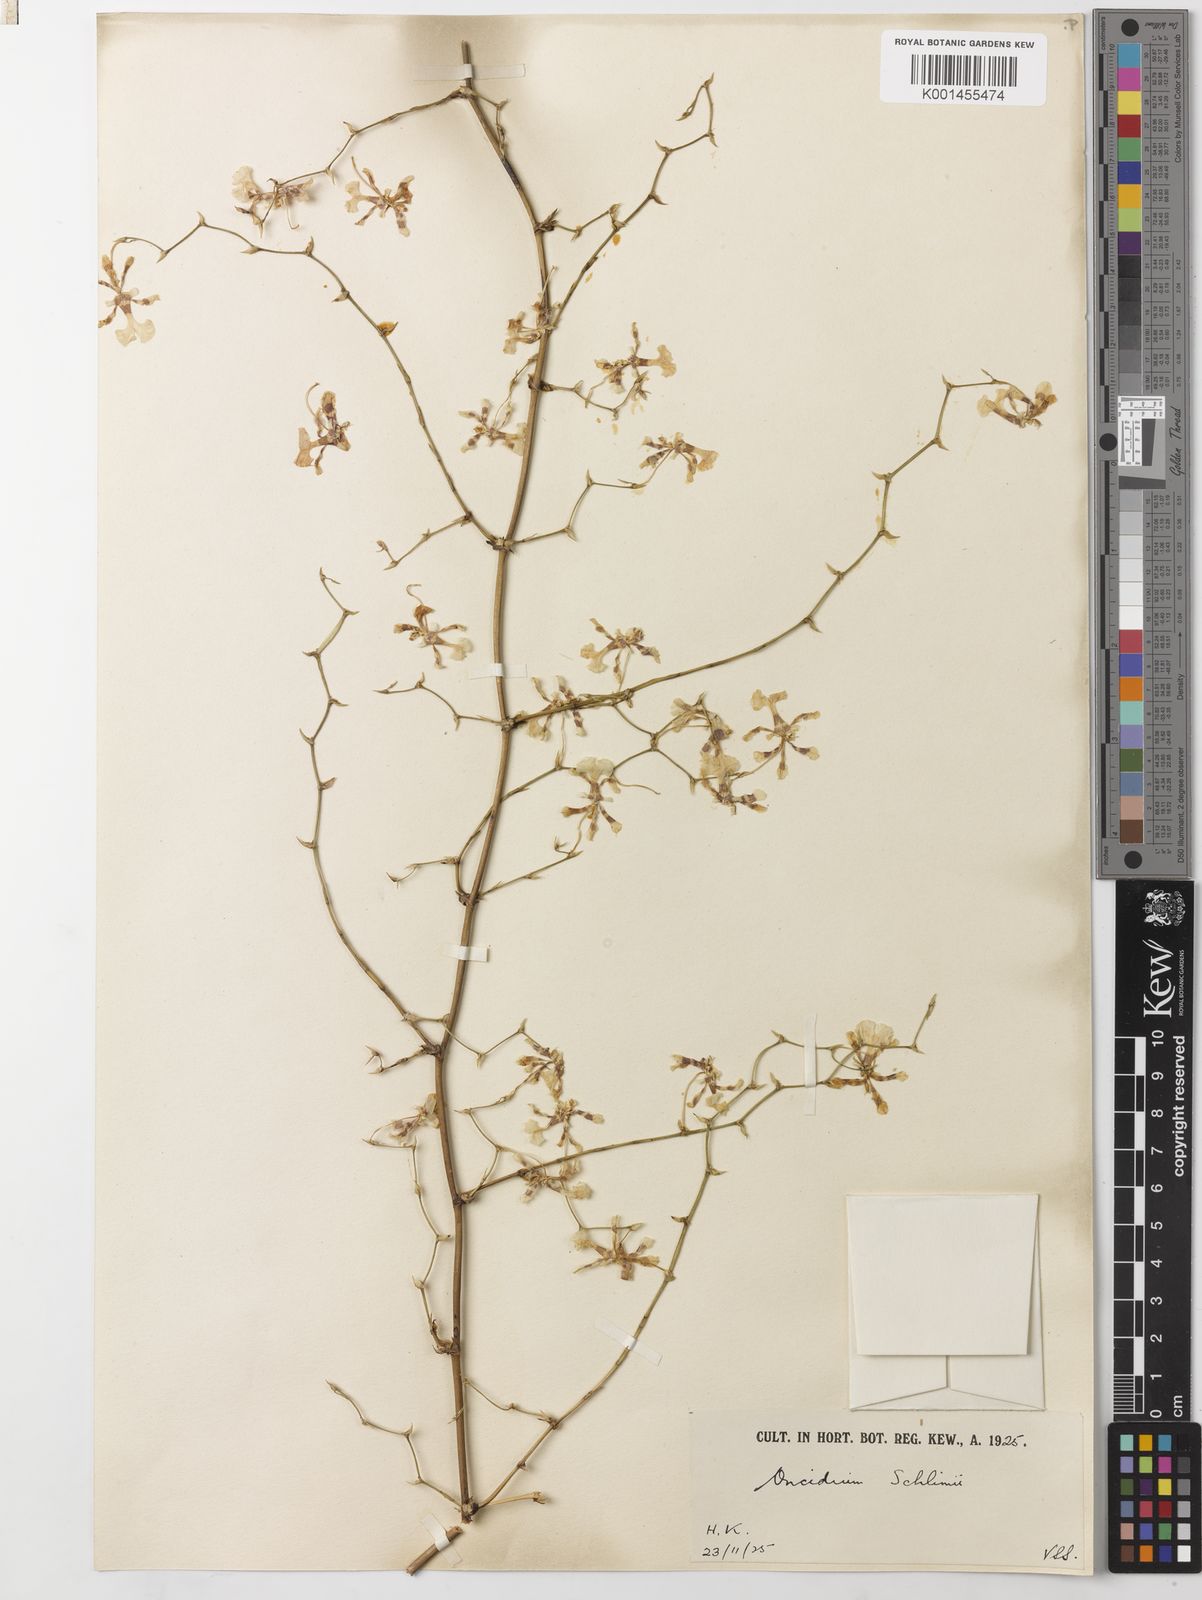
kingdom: Plantae
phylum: Tracheophyta
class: Liliopsida
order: Asparagales
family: Orchidaceae
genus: Oncidium
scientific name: Oncidium maizifolium
